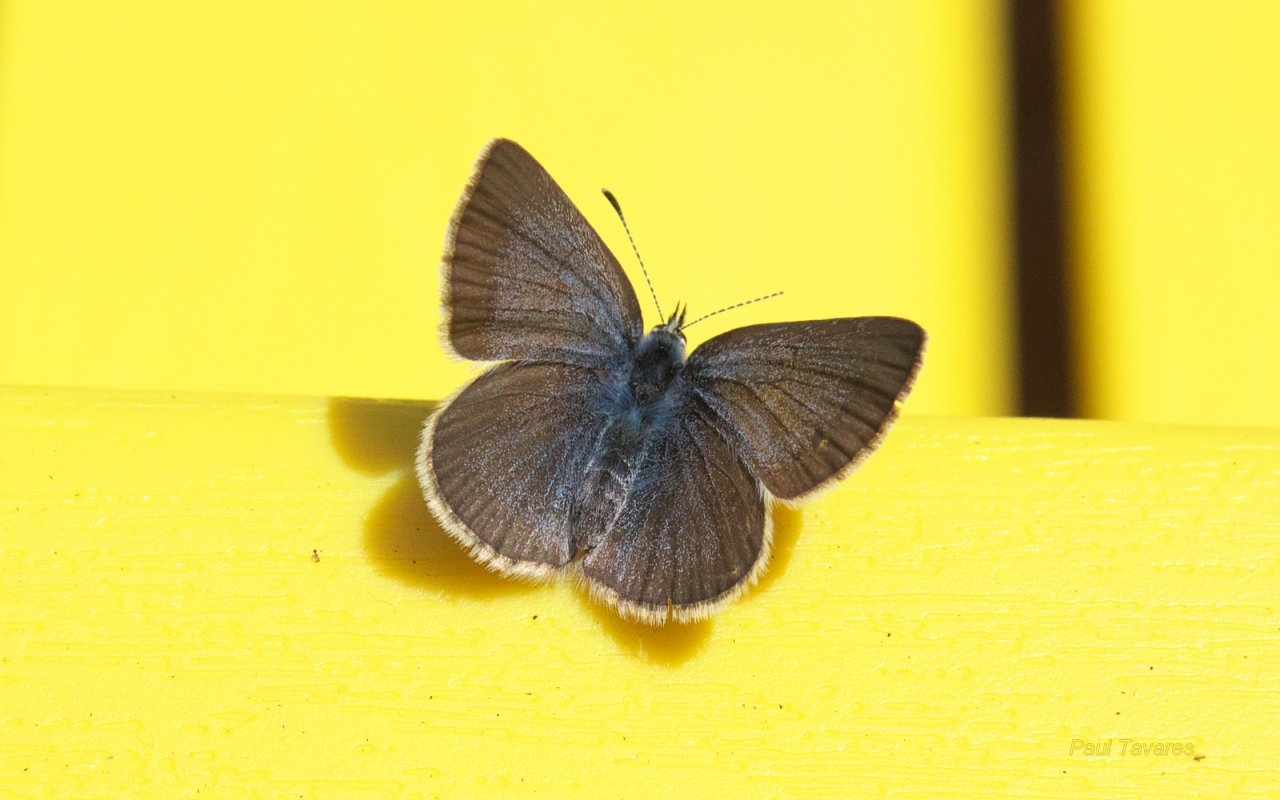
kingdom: Animalia
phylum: Arthropoda
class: Insecta
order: Lepidoptera
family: Lycaenidae
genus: Glaucopsyche
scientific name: Glaucopsyche lygdamus
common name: Silvery Blue
